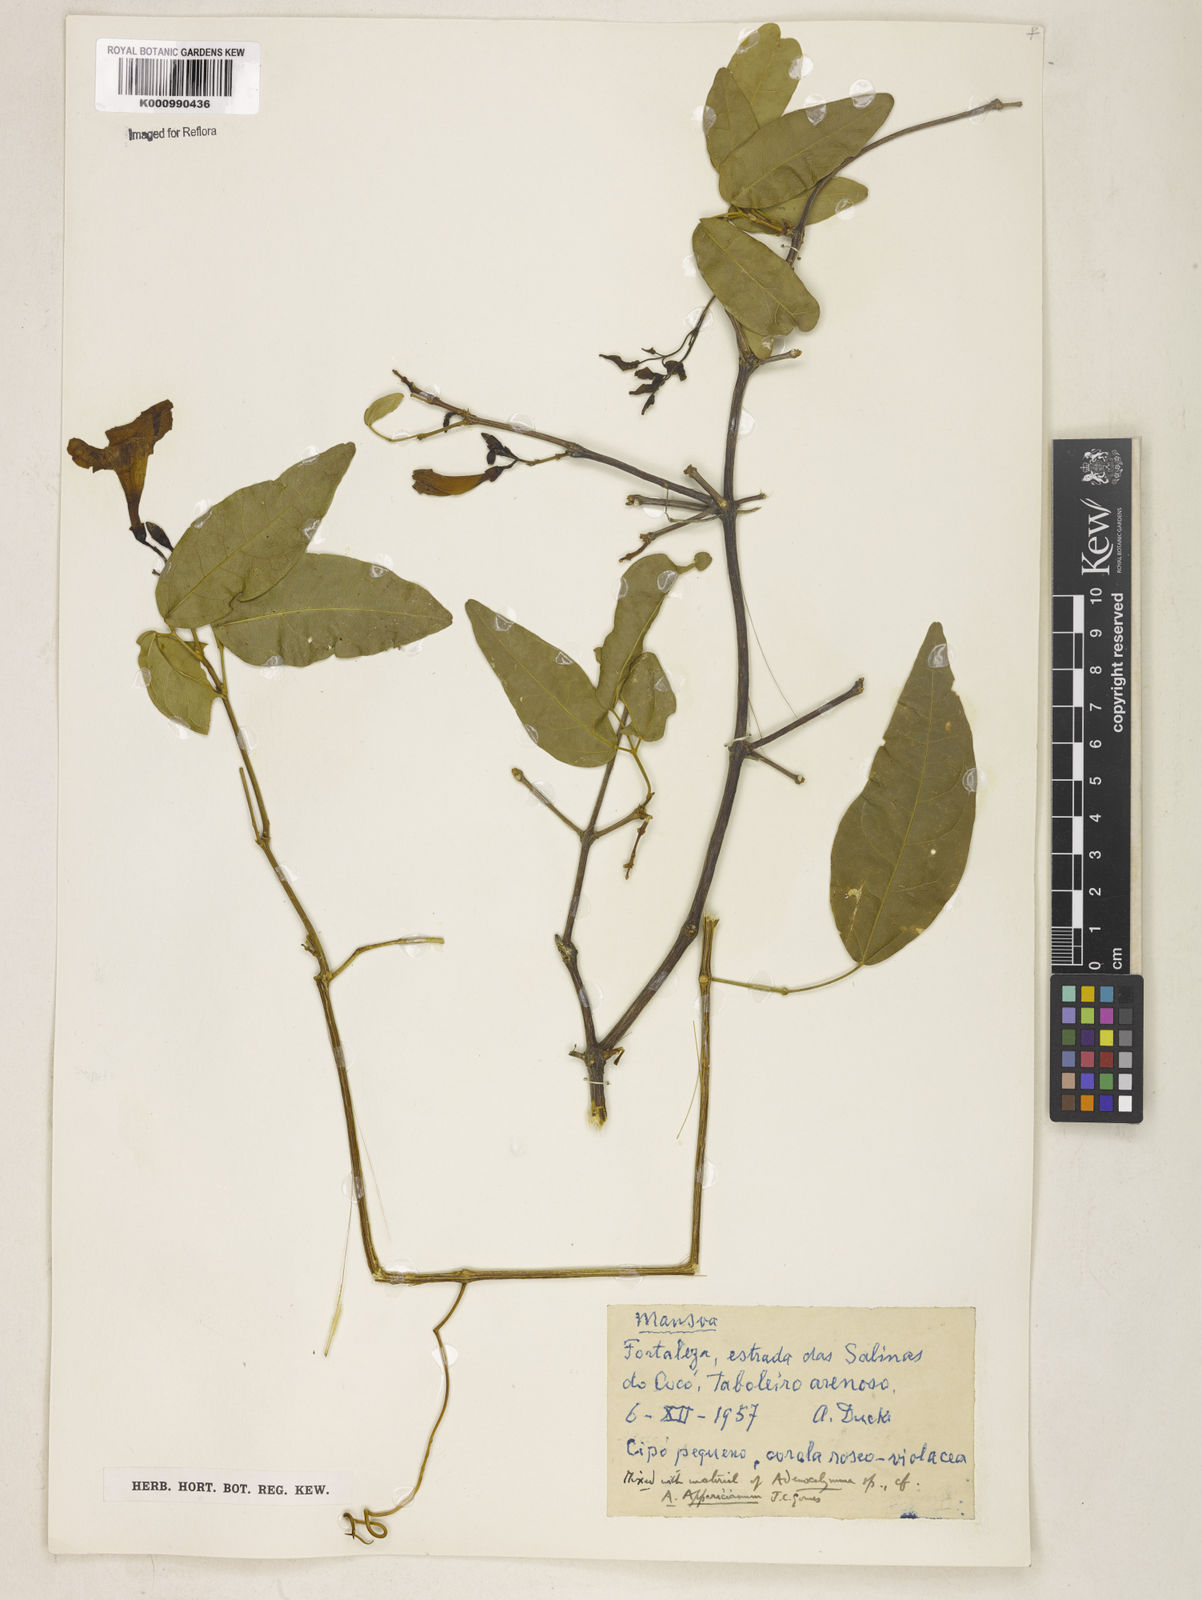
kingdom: Plantae
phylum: Tracheophyta
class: Magnoliopsida
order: Lamiales
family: Bignoniaceae
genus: Mansoa
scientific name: Mansoa
